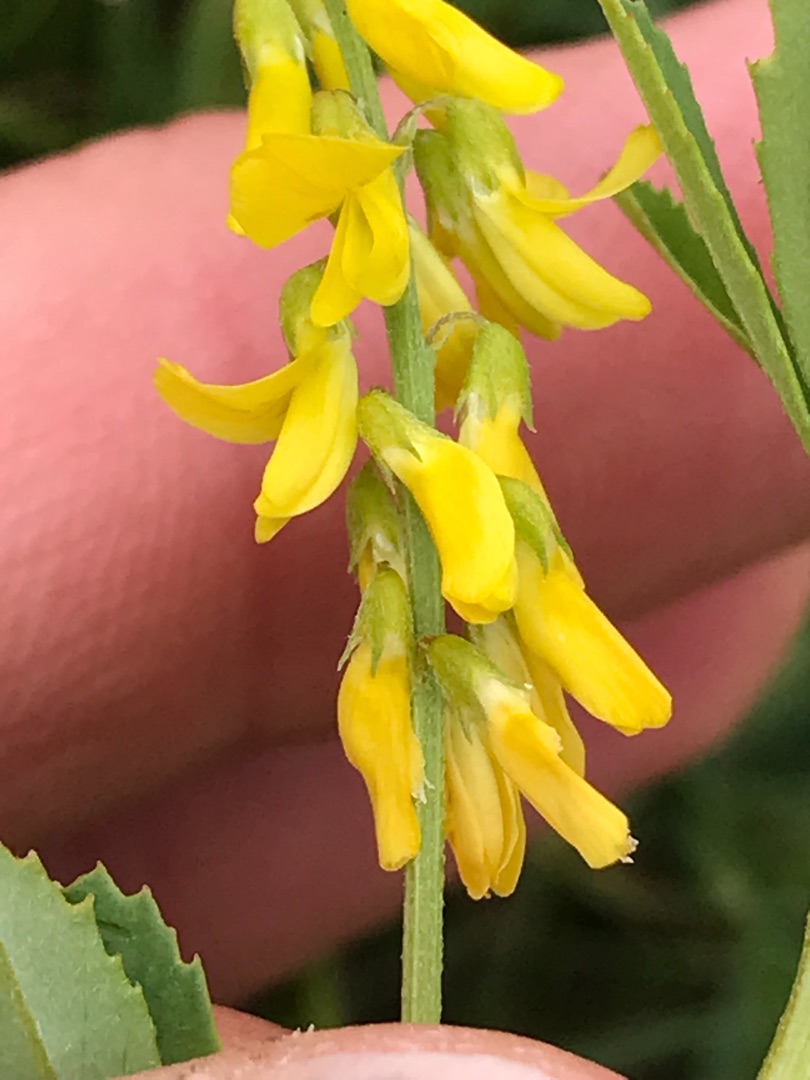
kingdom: Plantae
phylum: Tracheophyta
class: Magnoliopsida
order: Fabales
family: Fabaceae
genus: Melilotus
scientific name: Melilotus altissimus
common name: Høj stenkløver
